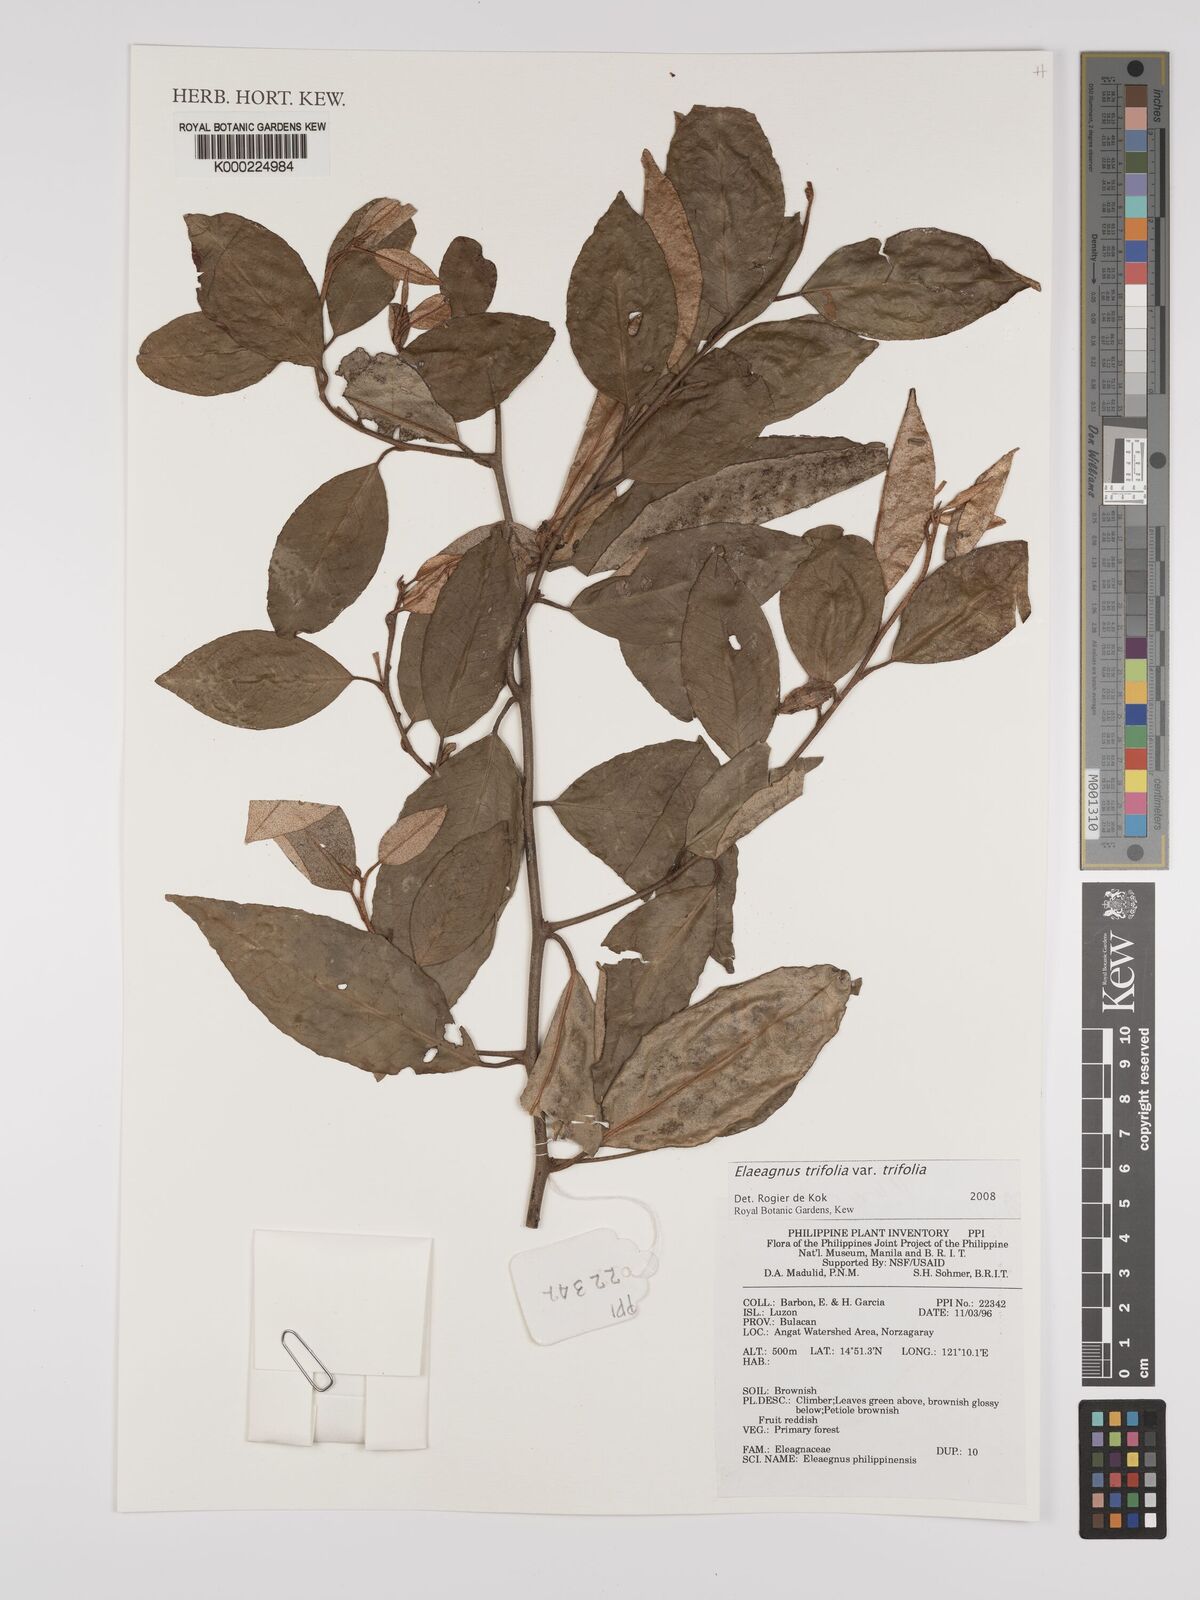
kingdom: Plantae
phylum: Tracheophyta
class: Magnoliopsida
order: Rosales
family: Elaeagnaceae
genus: Elaeagnus
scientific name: Elaeagnus
